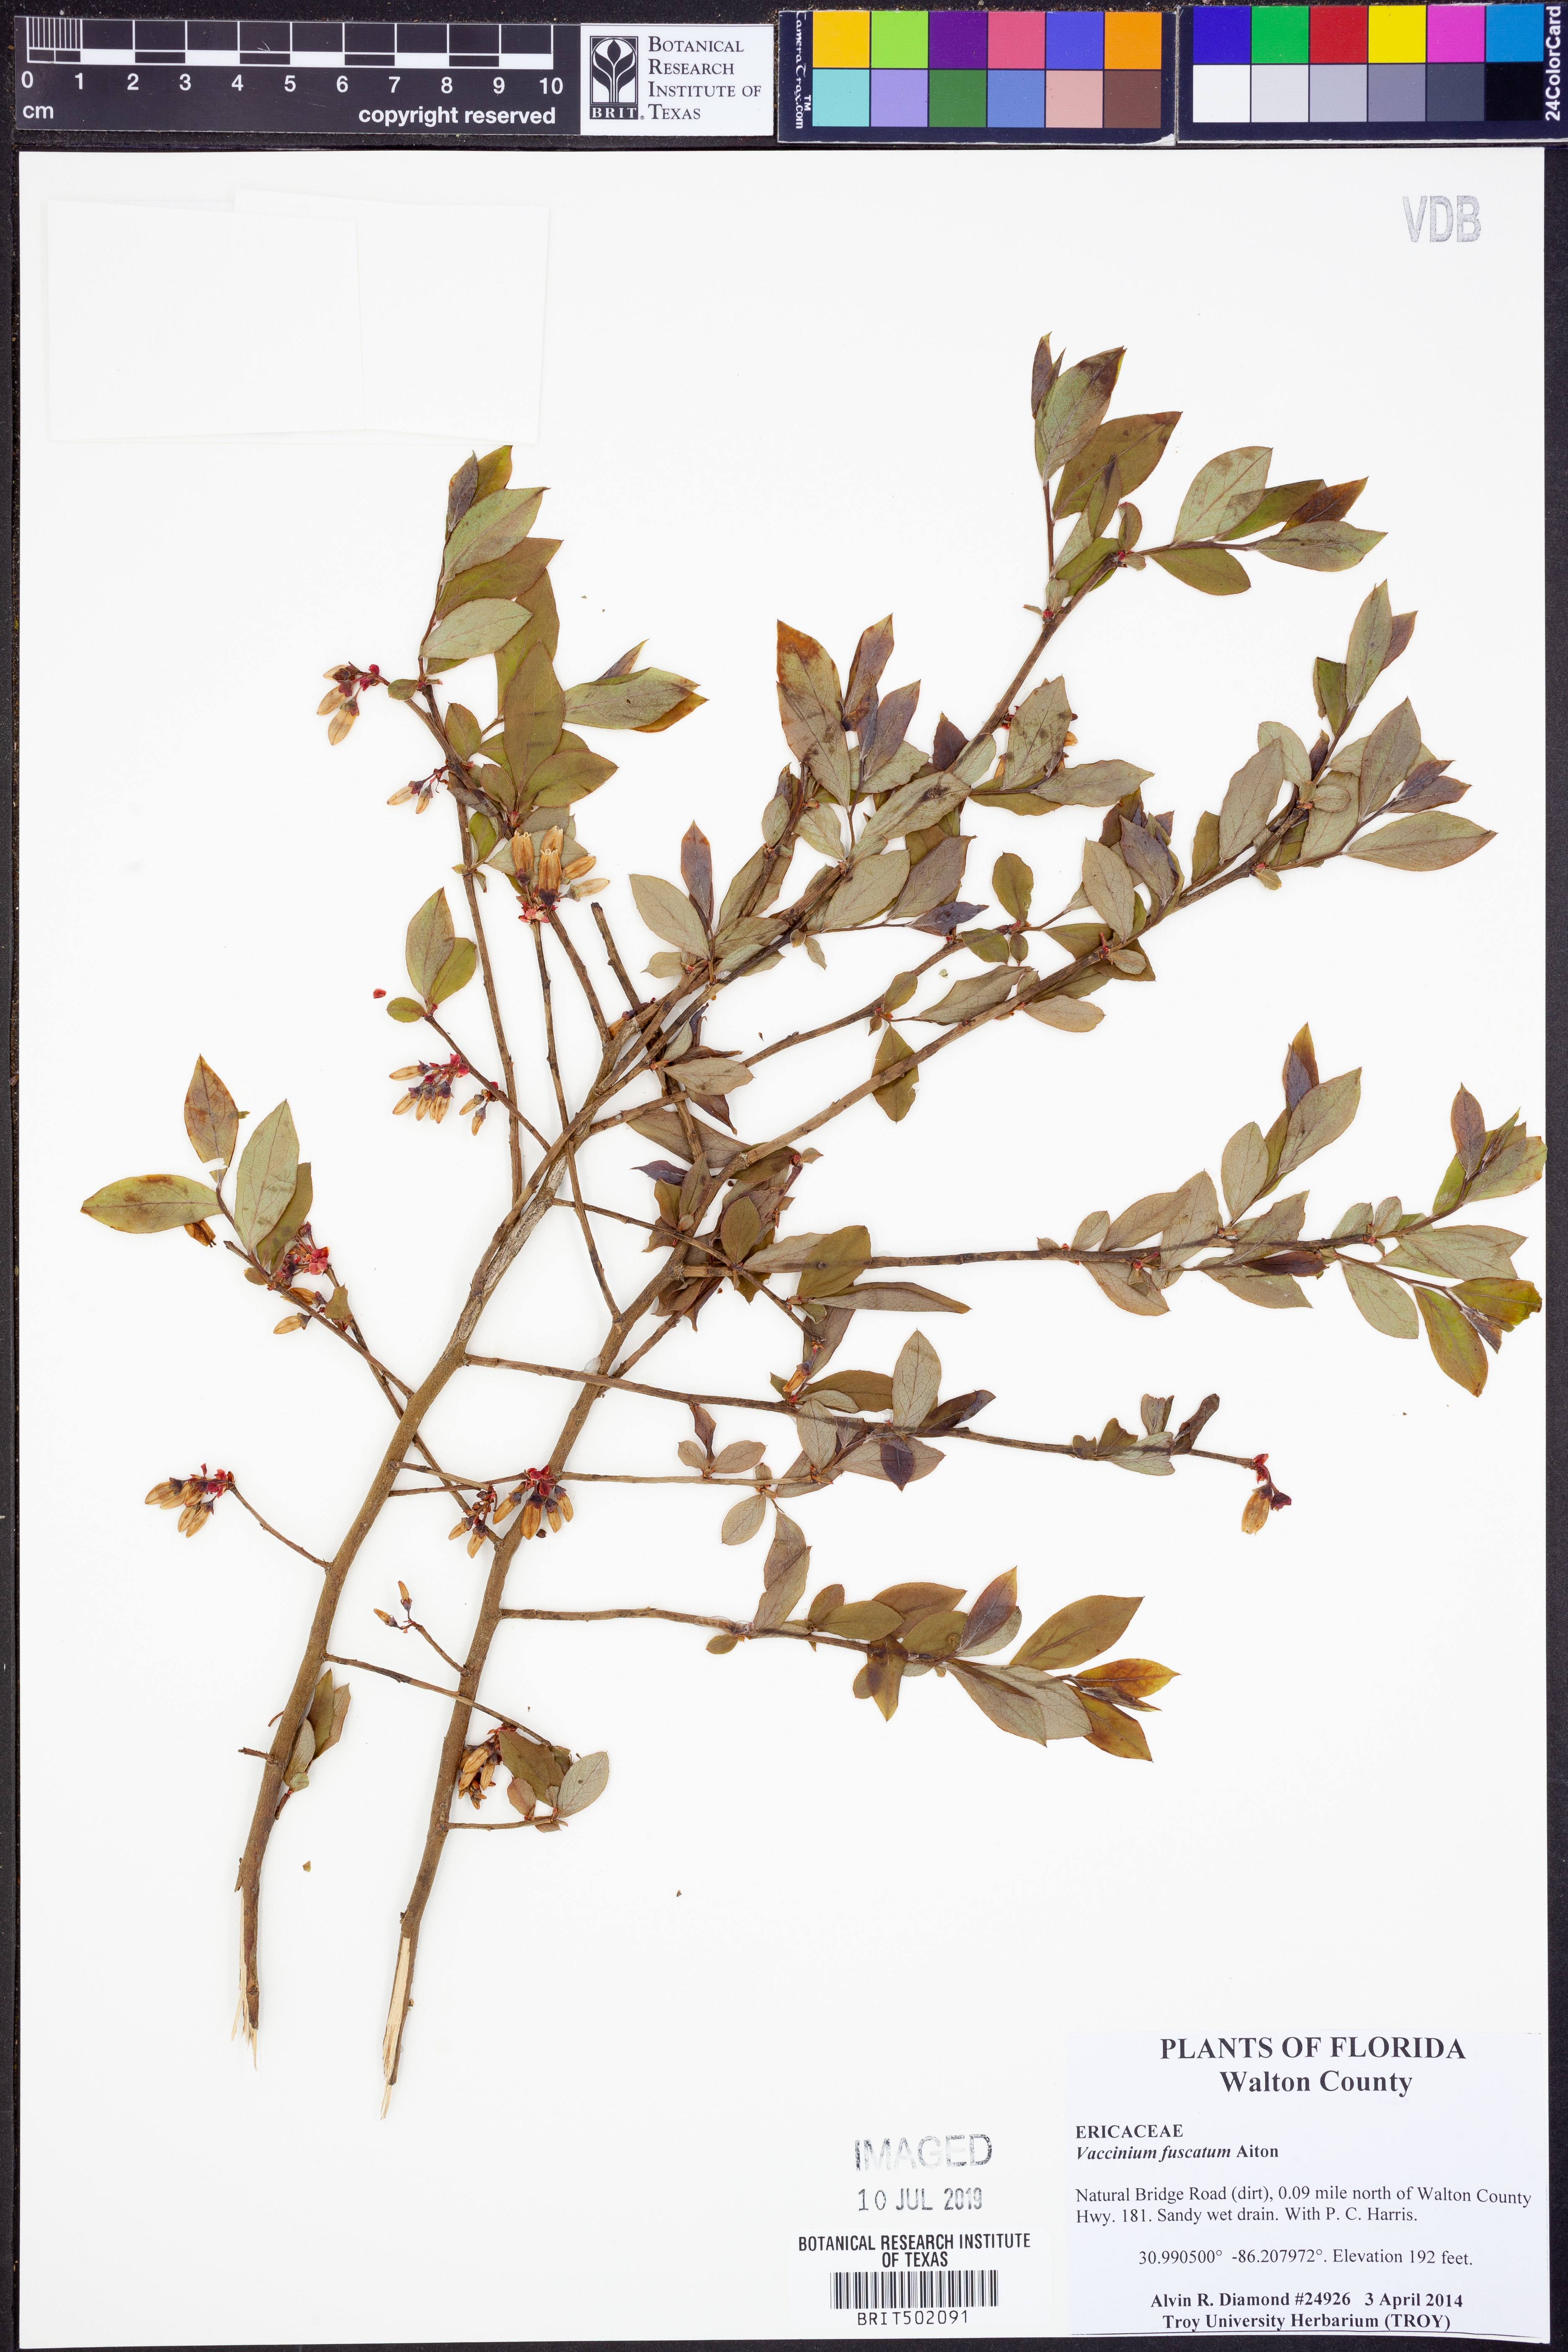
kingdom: Plantae
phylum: Tracheophyta
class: Magnoliopsida
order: Ericales
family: Ericaceae
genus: Vaccinium
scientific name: Vaccinium corymbosum
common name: Blueberry
